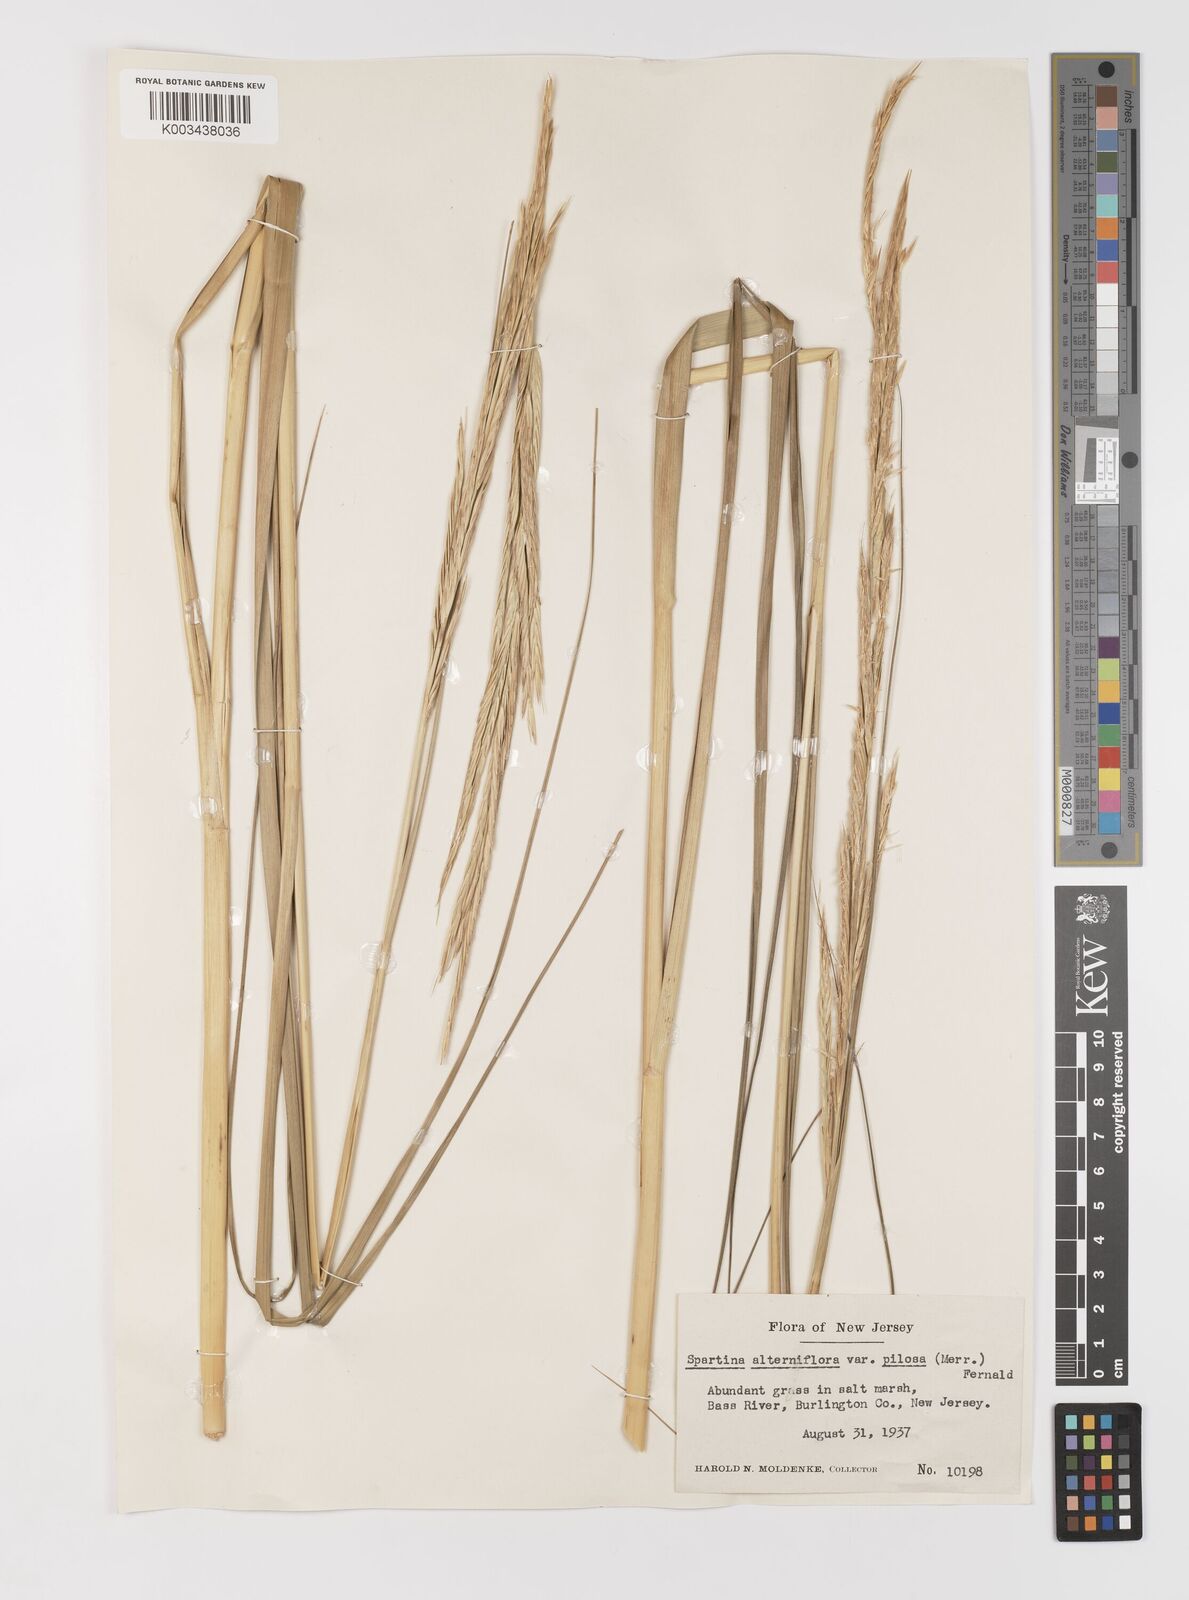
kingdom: Plantae
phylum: Tracheophyta
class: Liliopsida
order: Poales
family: Poaceae
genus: Sporobolus
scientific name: Sporobolus alterniflorus
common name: Atlantic cordgrass
